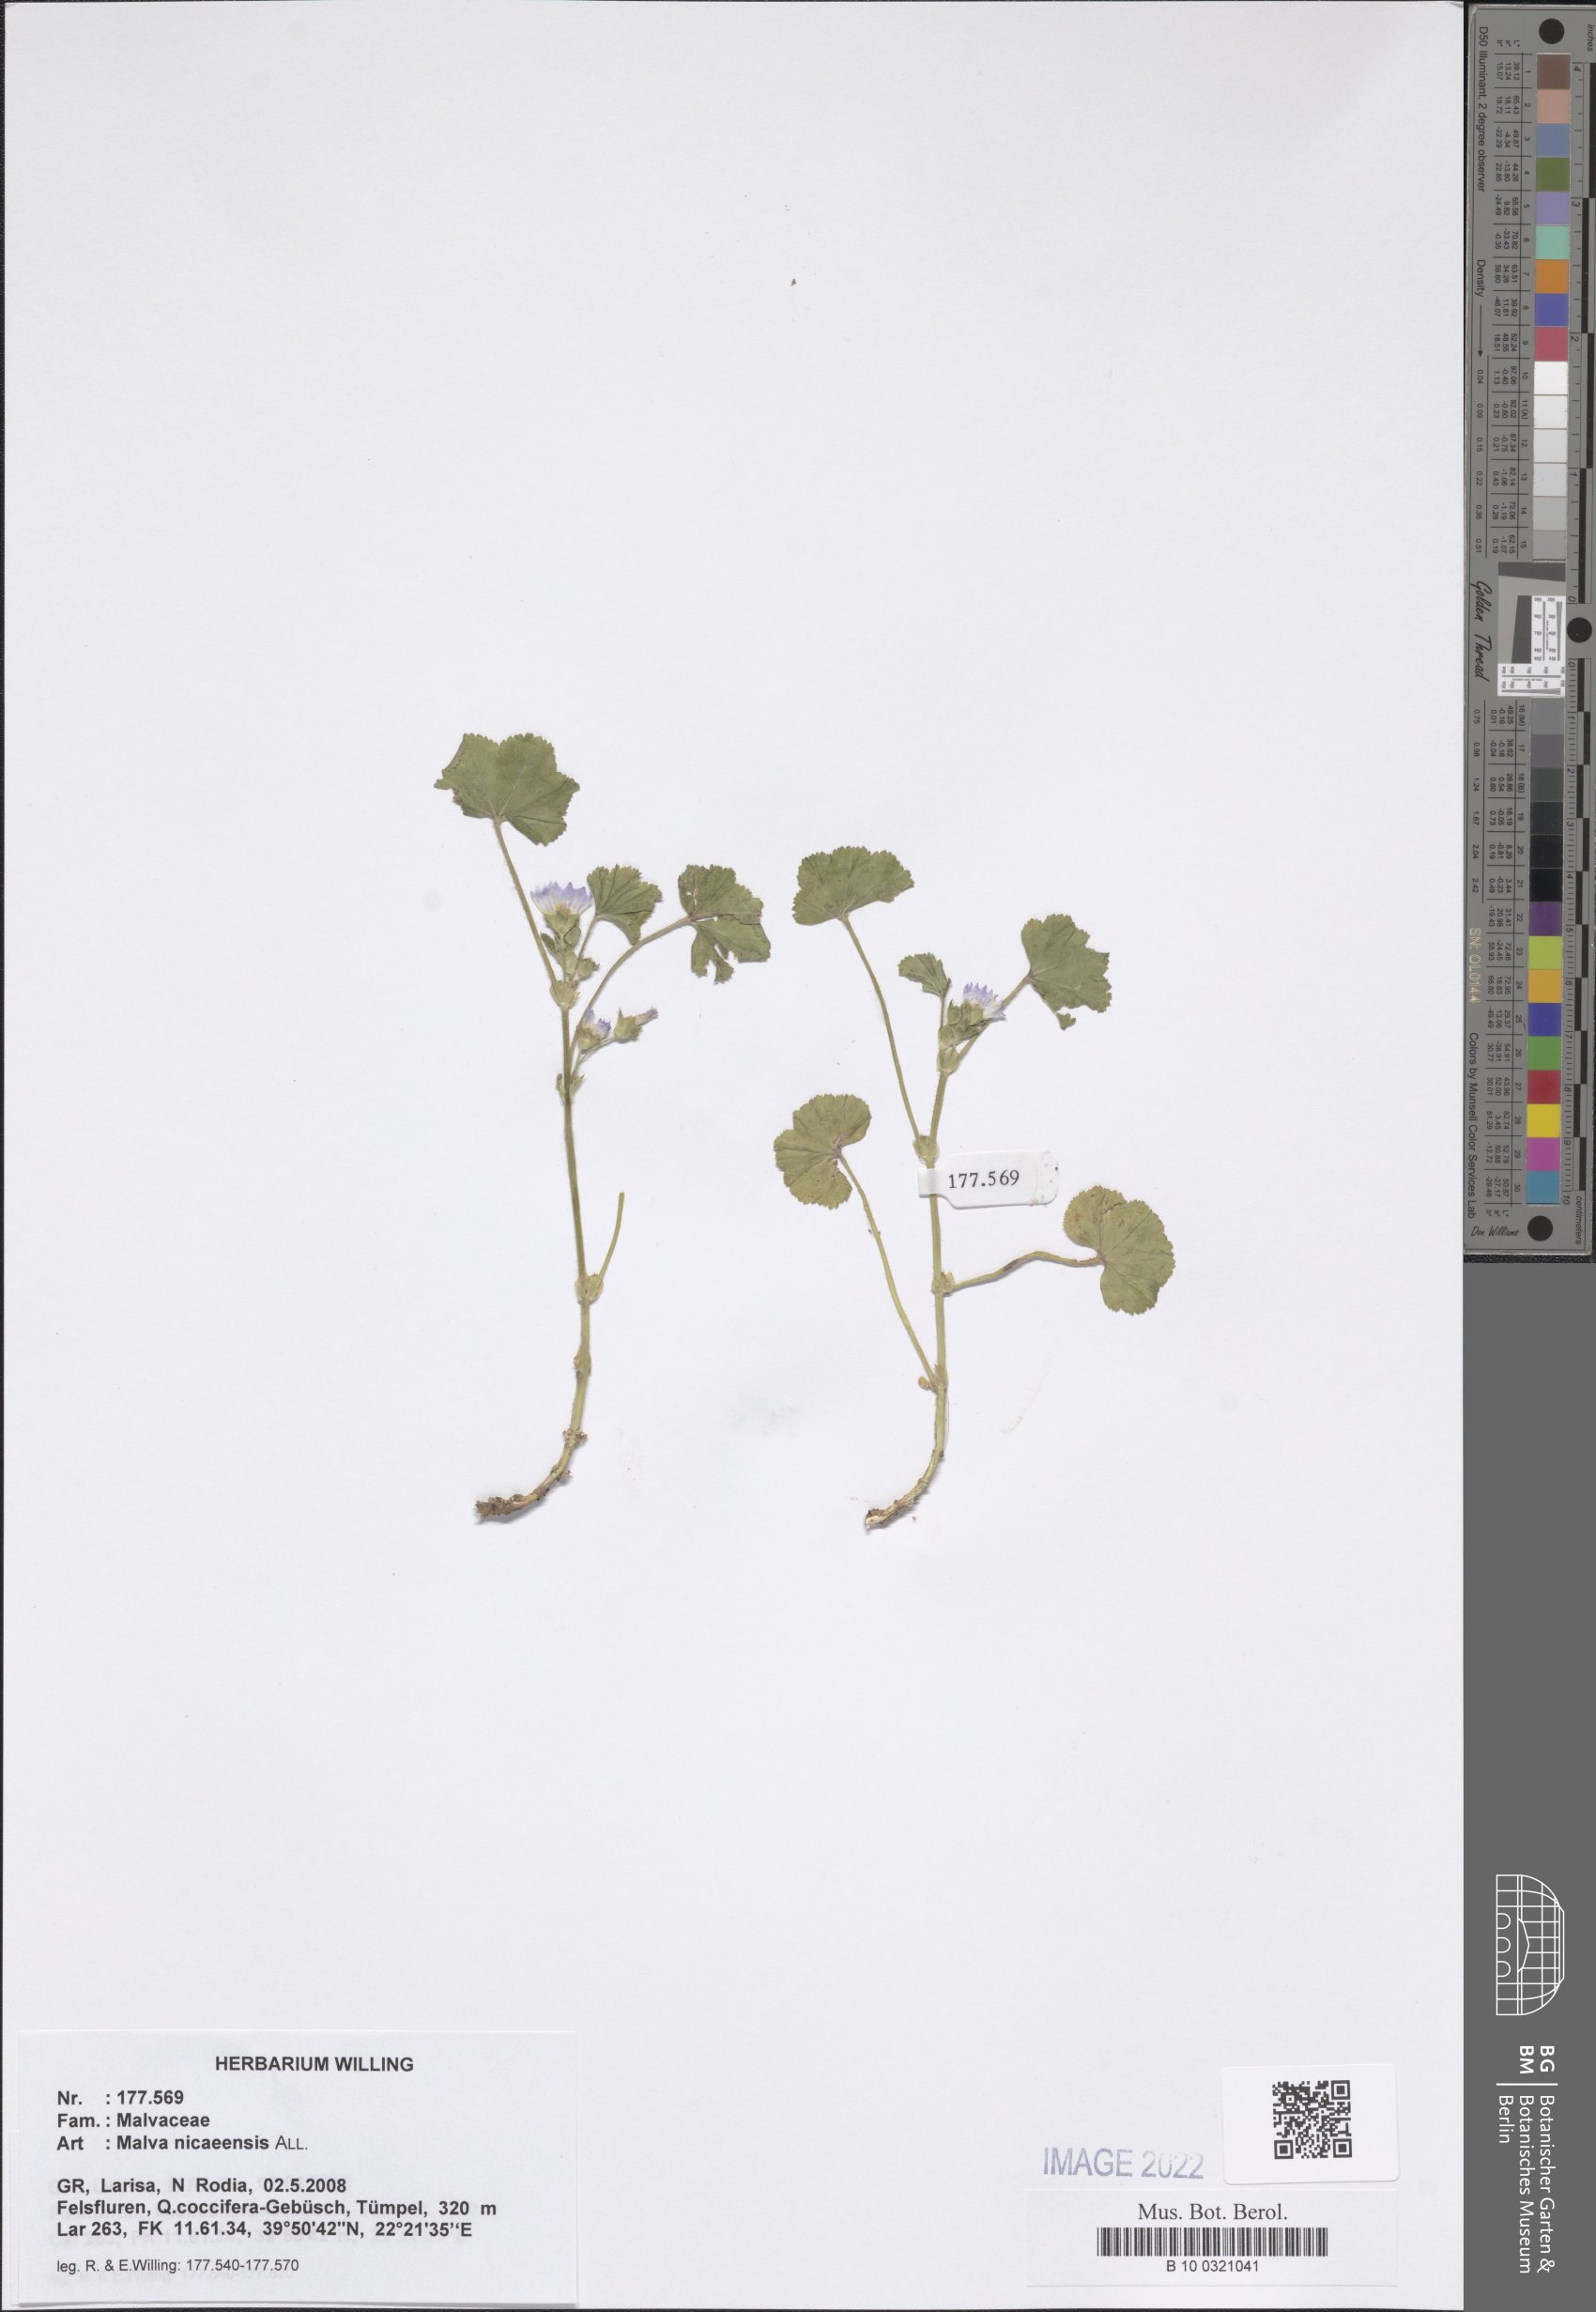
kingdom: Plantae
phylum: Tracheophyta
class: Magnoliopsida
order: Malvales
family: Malvaceae
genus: Malva
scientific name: Malva nicaeensis
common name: French mallow
